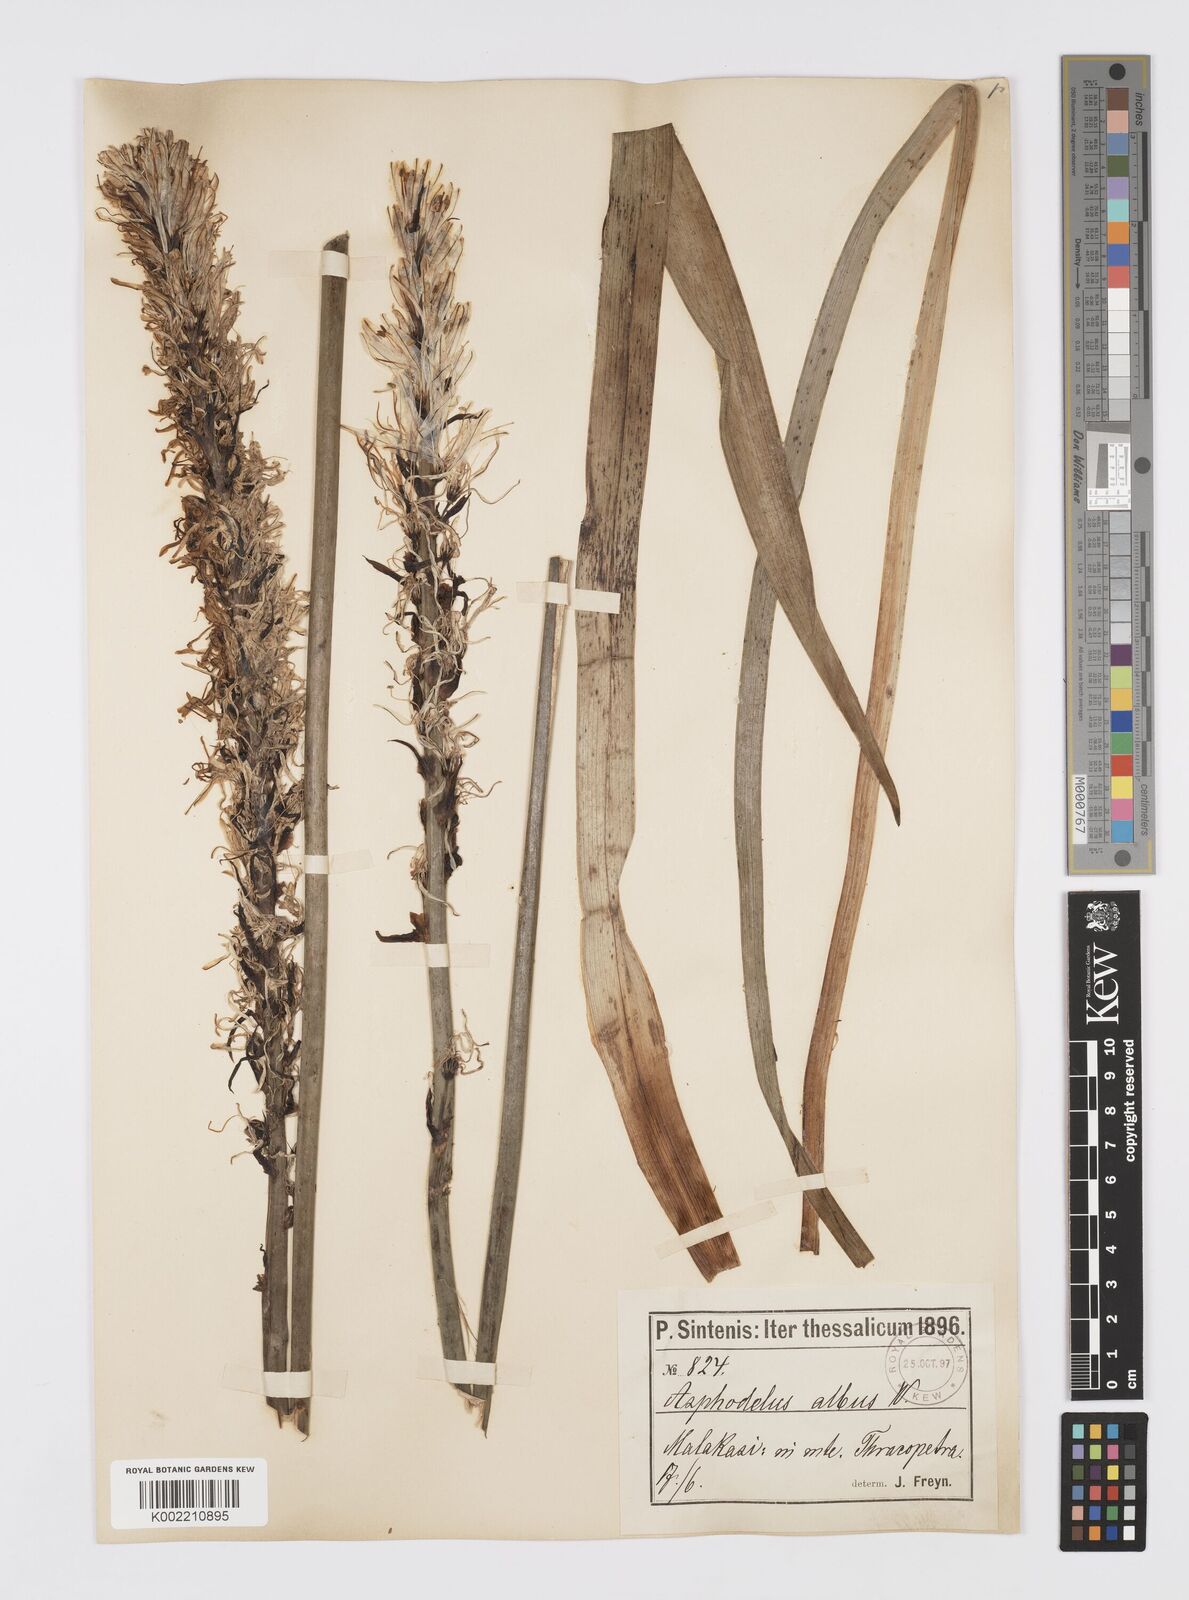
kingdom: Plantae
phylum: Tracheophyta
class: Liliopsida
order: Asparagales
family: Asphodelaceae
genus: Asphodelus
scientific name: Asphodelus albus
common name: White asphodel
